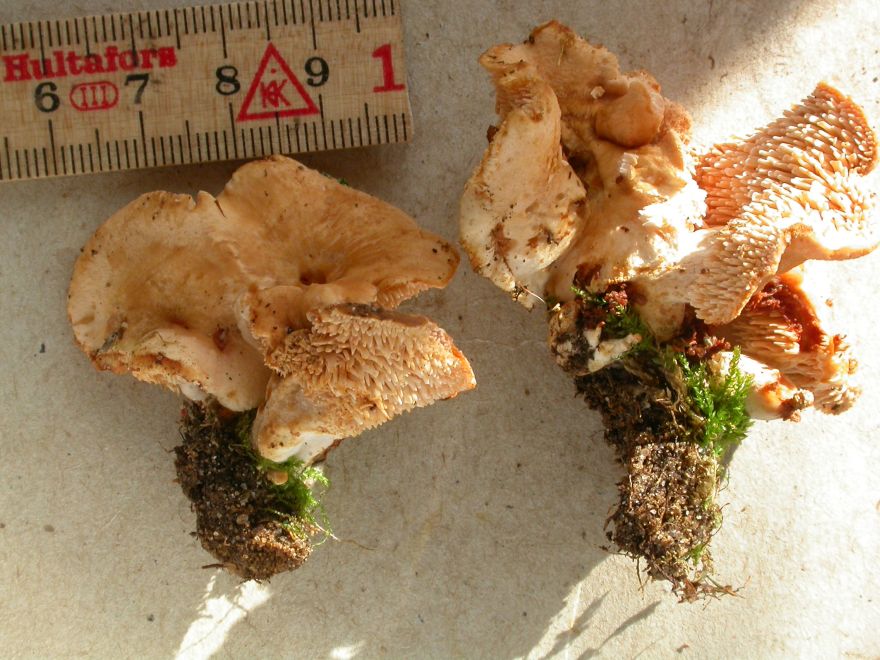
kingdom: Fungi
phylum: Basidiomycota
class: Agaricomycetes
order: Cantharellales
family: Hydnaceae
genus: Hydnum
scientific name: Hydnum ellipsosporum
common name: tandet pigsvamp
